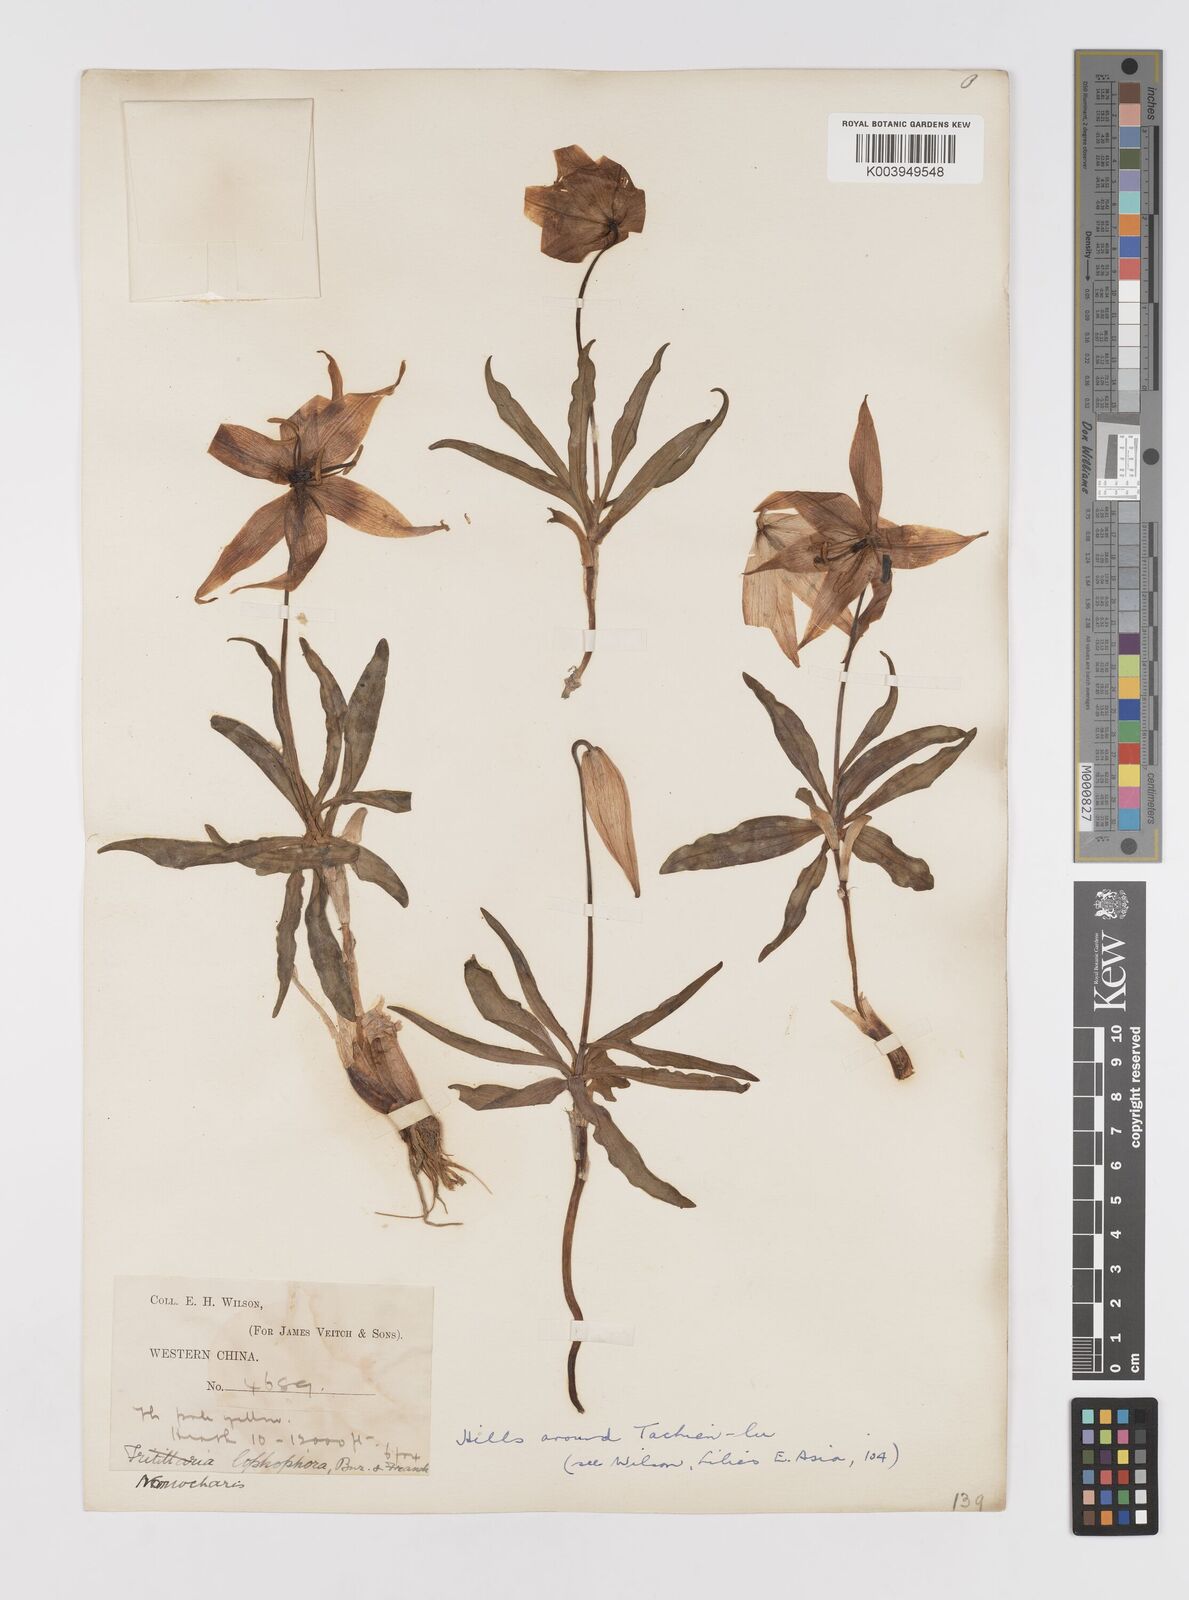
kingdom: Plantae
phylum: Tracheophyta
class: Liliopsida
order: Liliales
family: Liliaceae
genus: Lilium
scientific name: Lilium lophophorum
